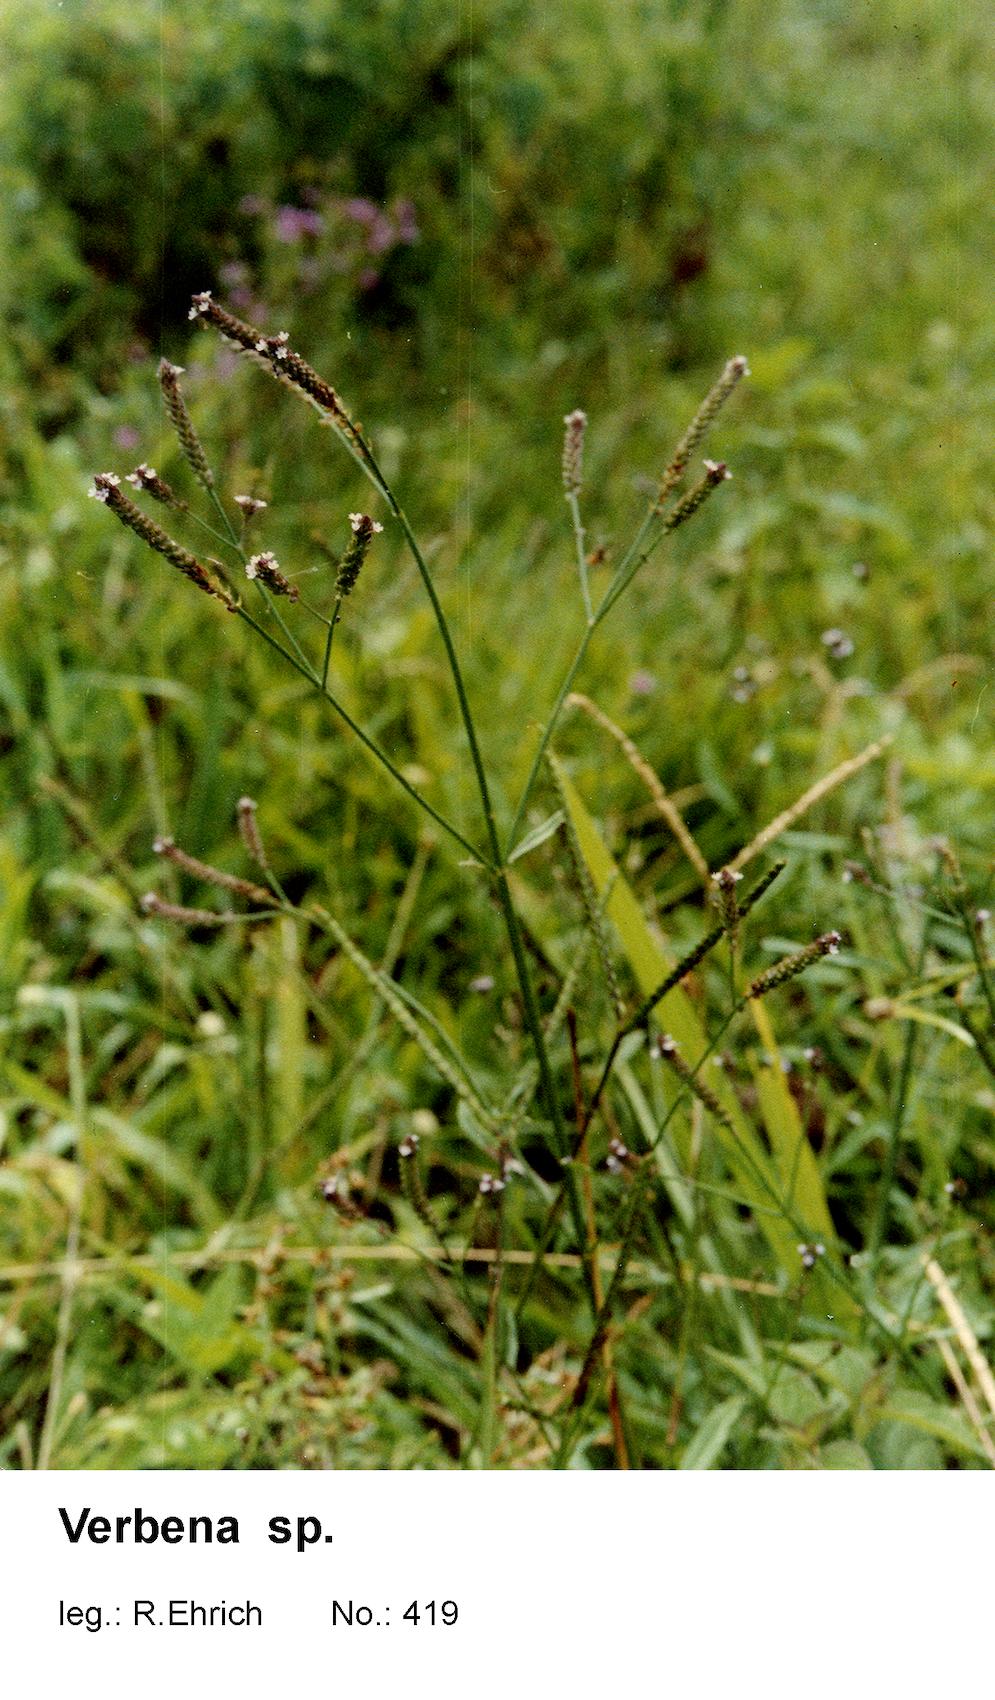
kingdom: Plantae
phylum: Tracheophyta
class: Magnoliopsida
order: Lamiales
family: Verbenaceae
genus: Verbena
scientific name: Verbena
